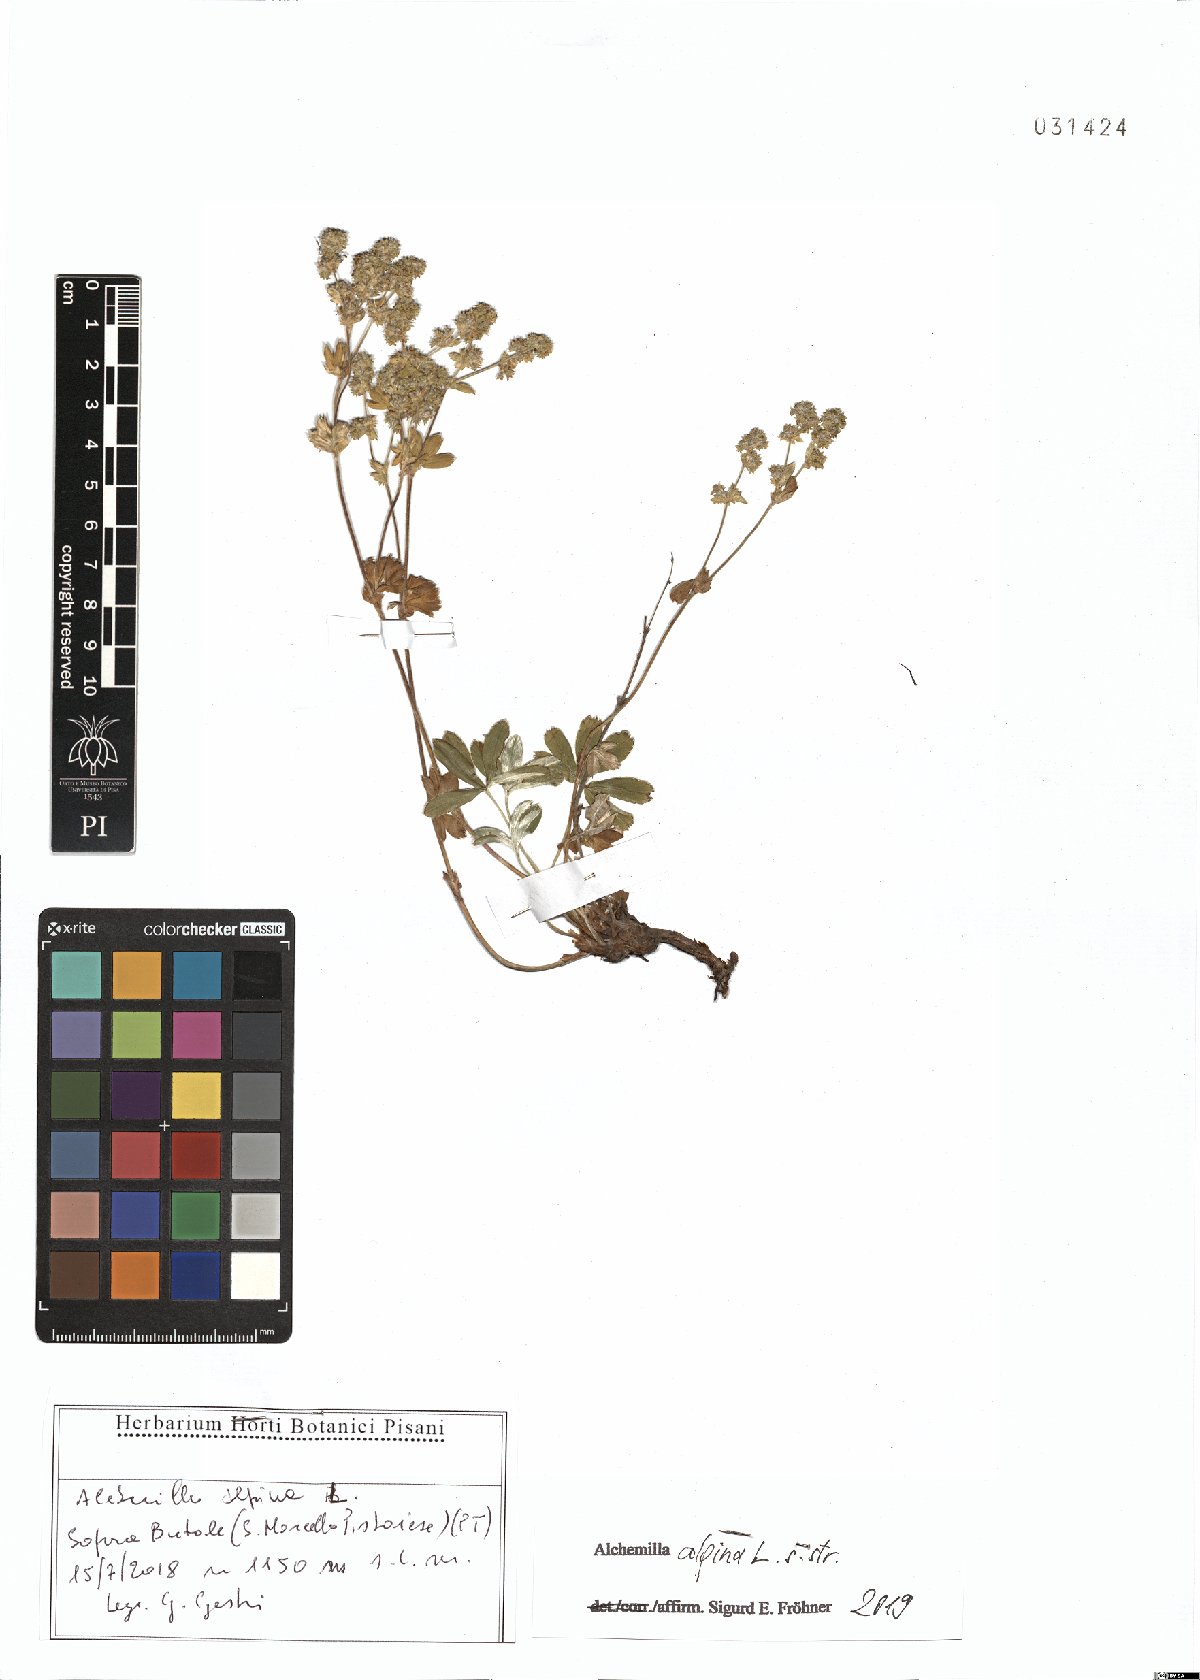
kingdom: Plantae
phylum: Tracheophyta
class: Magnoliopsida
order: Rosales
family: Rosaceae
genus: Alchemilla
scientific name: Alchemilla alpina
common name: Alpine lady's-mantle
